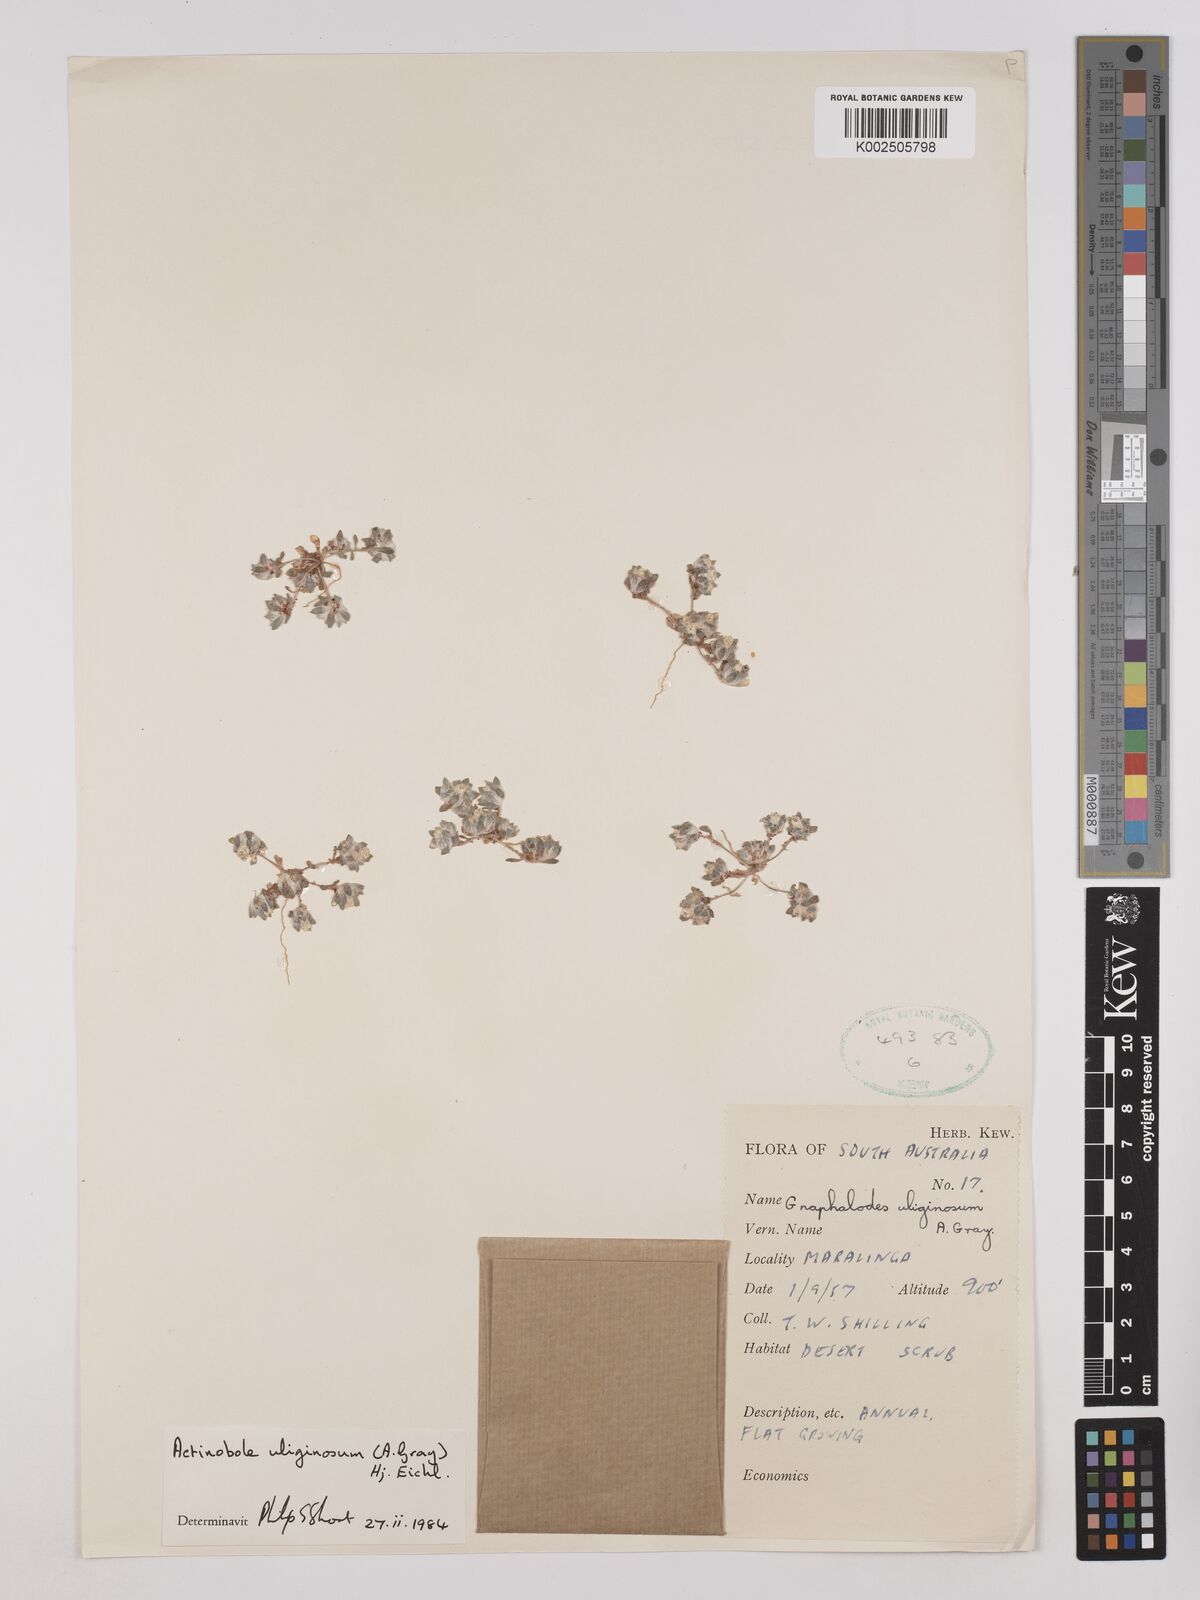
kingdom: Plantae
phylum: Tracheophyta
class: Magnoliopsida
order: Asterales
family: Asteraceae
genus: Actinobole
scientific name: Actinobole uliginosum
